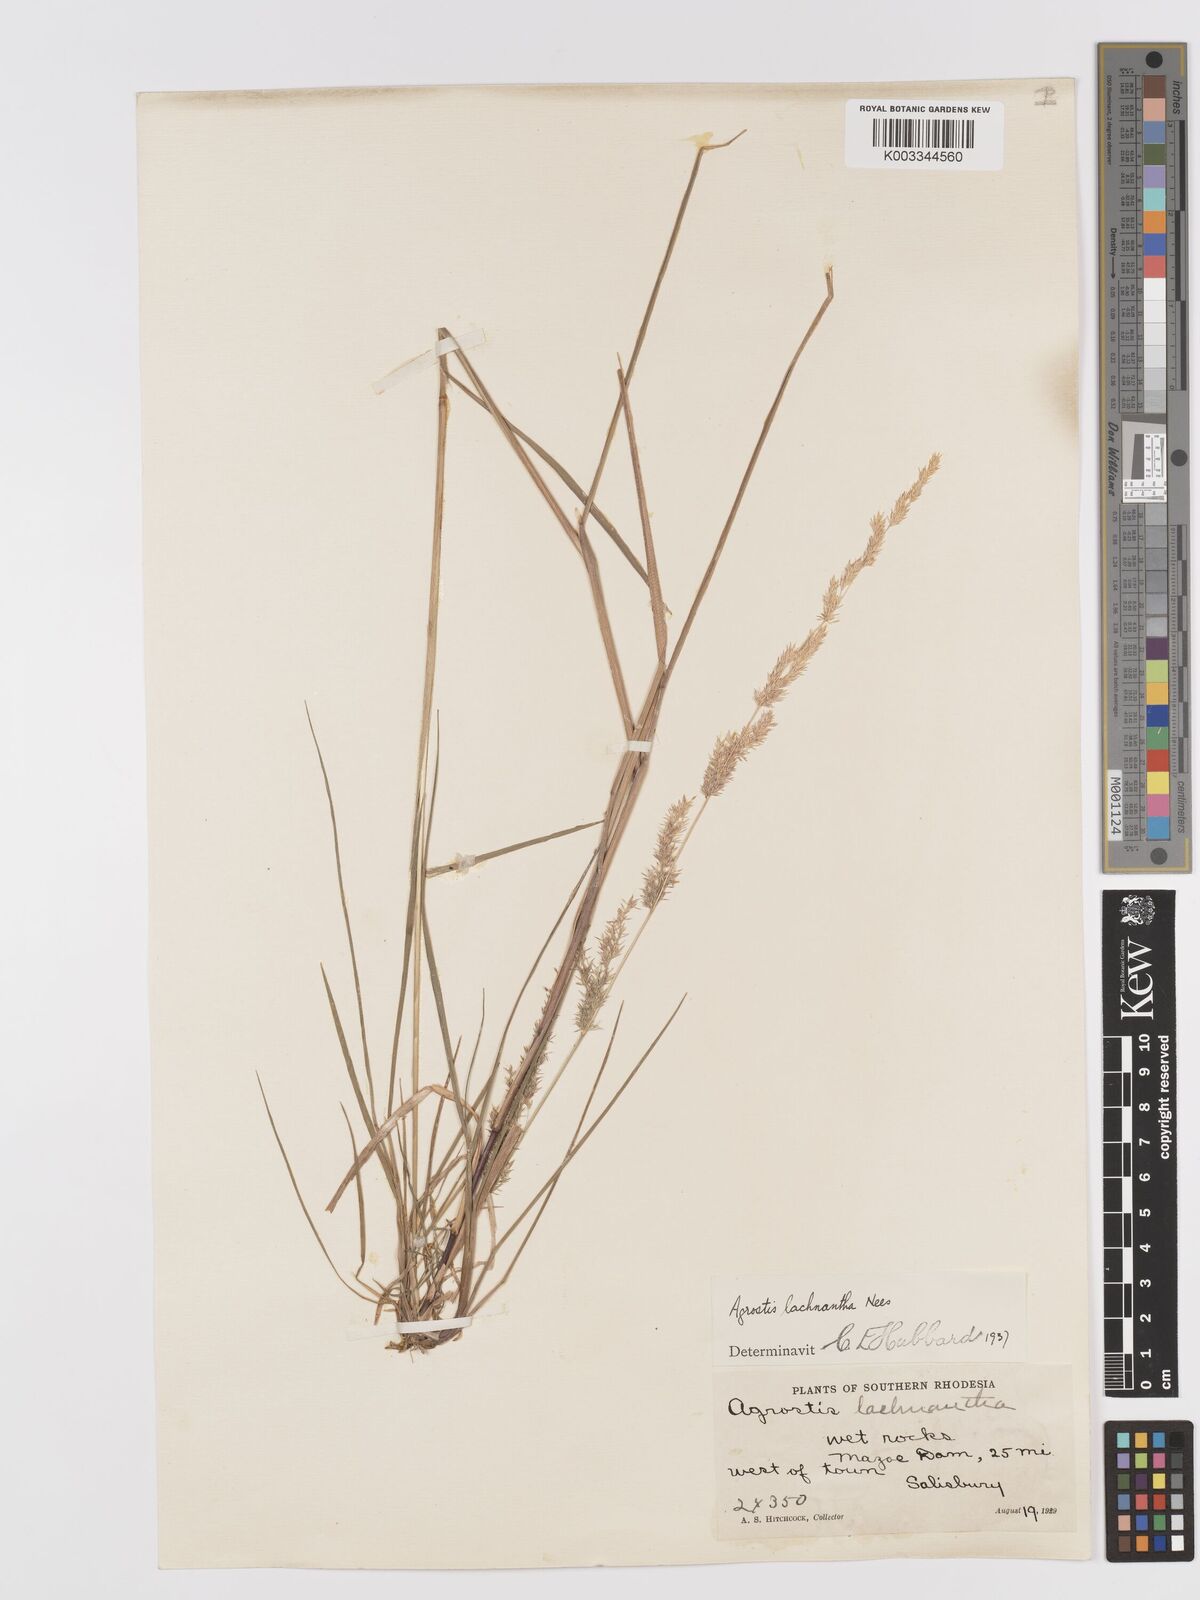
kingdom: Plantae
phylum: Tracheophyta
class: Liliopsida
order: Poales
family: Poaceae
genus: Lachnagrostis
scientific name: Lachnagrostis lachnantha
